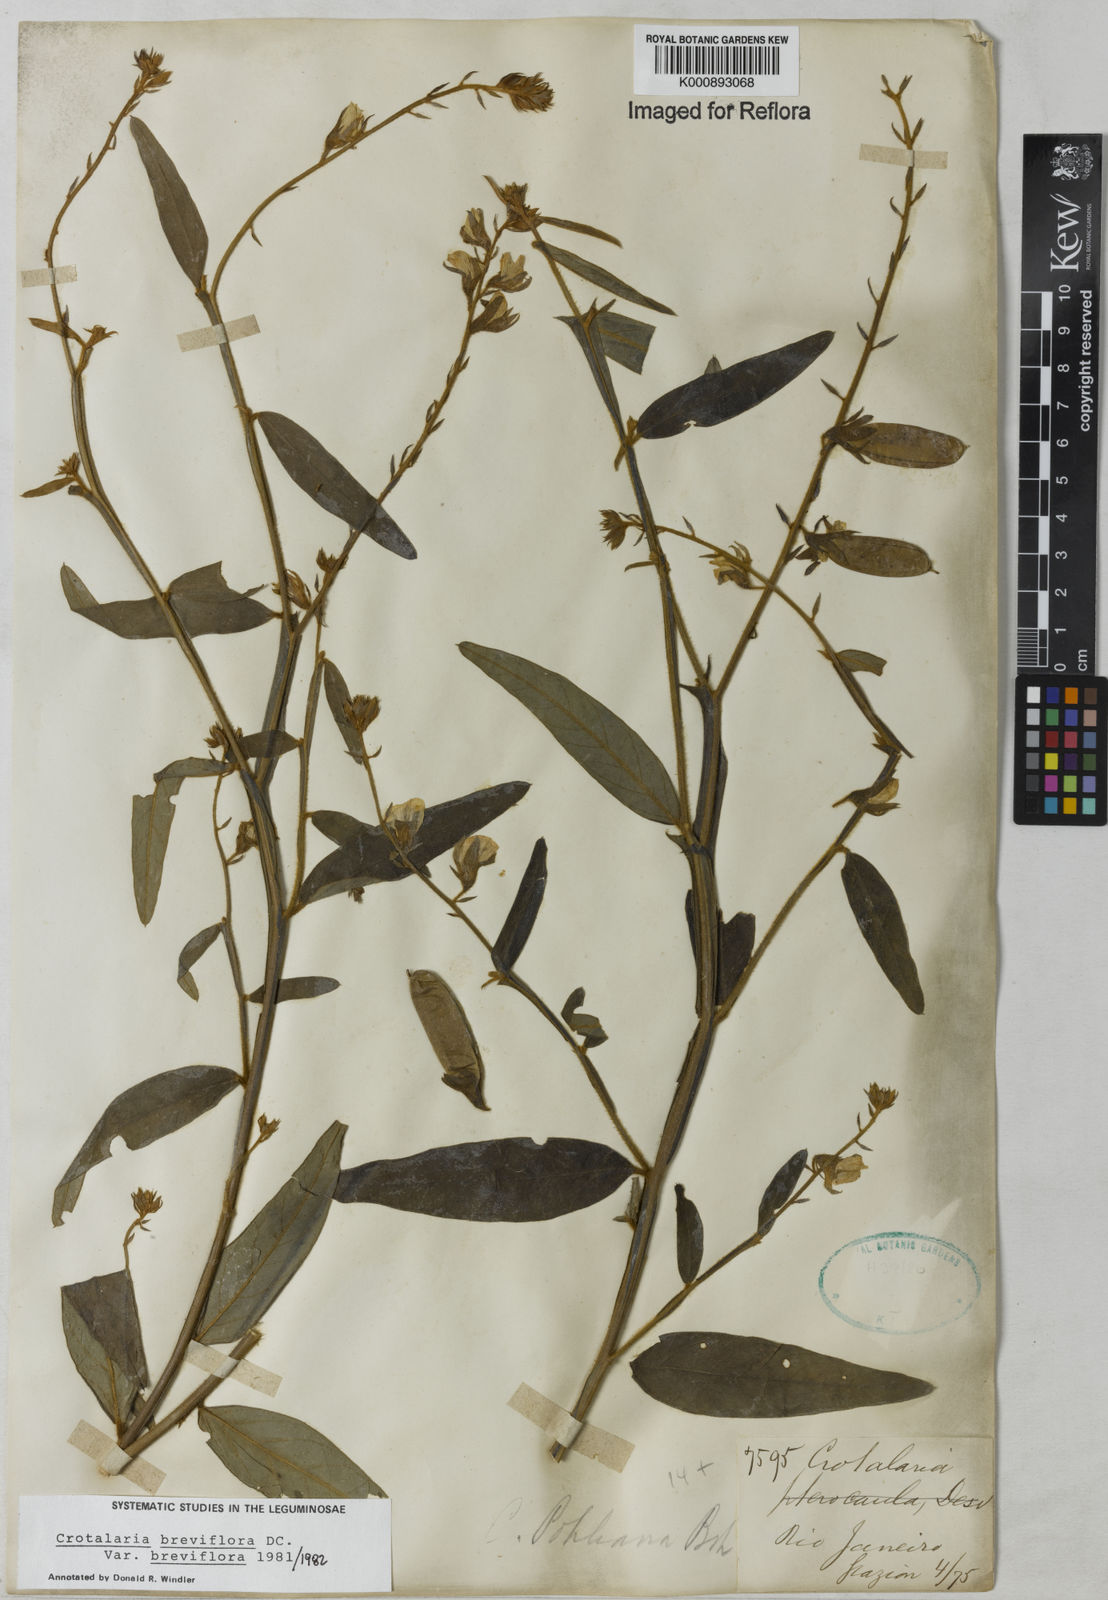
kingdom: Plantae
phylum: Tracheophyta
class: Magnoliopsida
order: Fabales
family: Fabaceae
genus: Crotalaria
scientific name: Crotalaria breviflora
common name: Short-flower crotalaria
